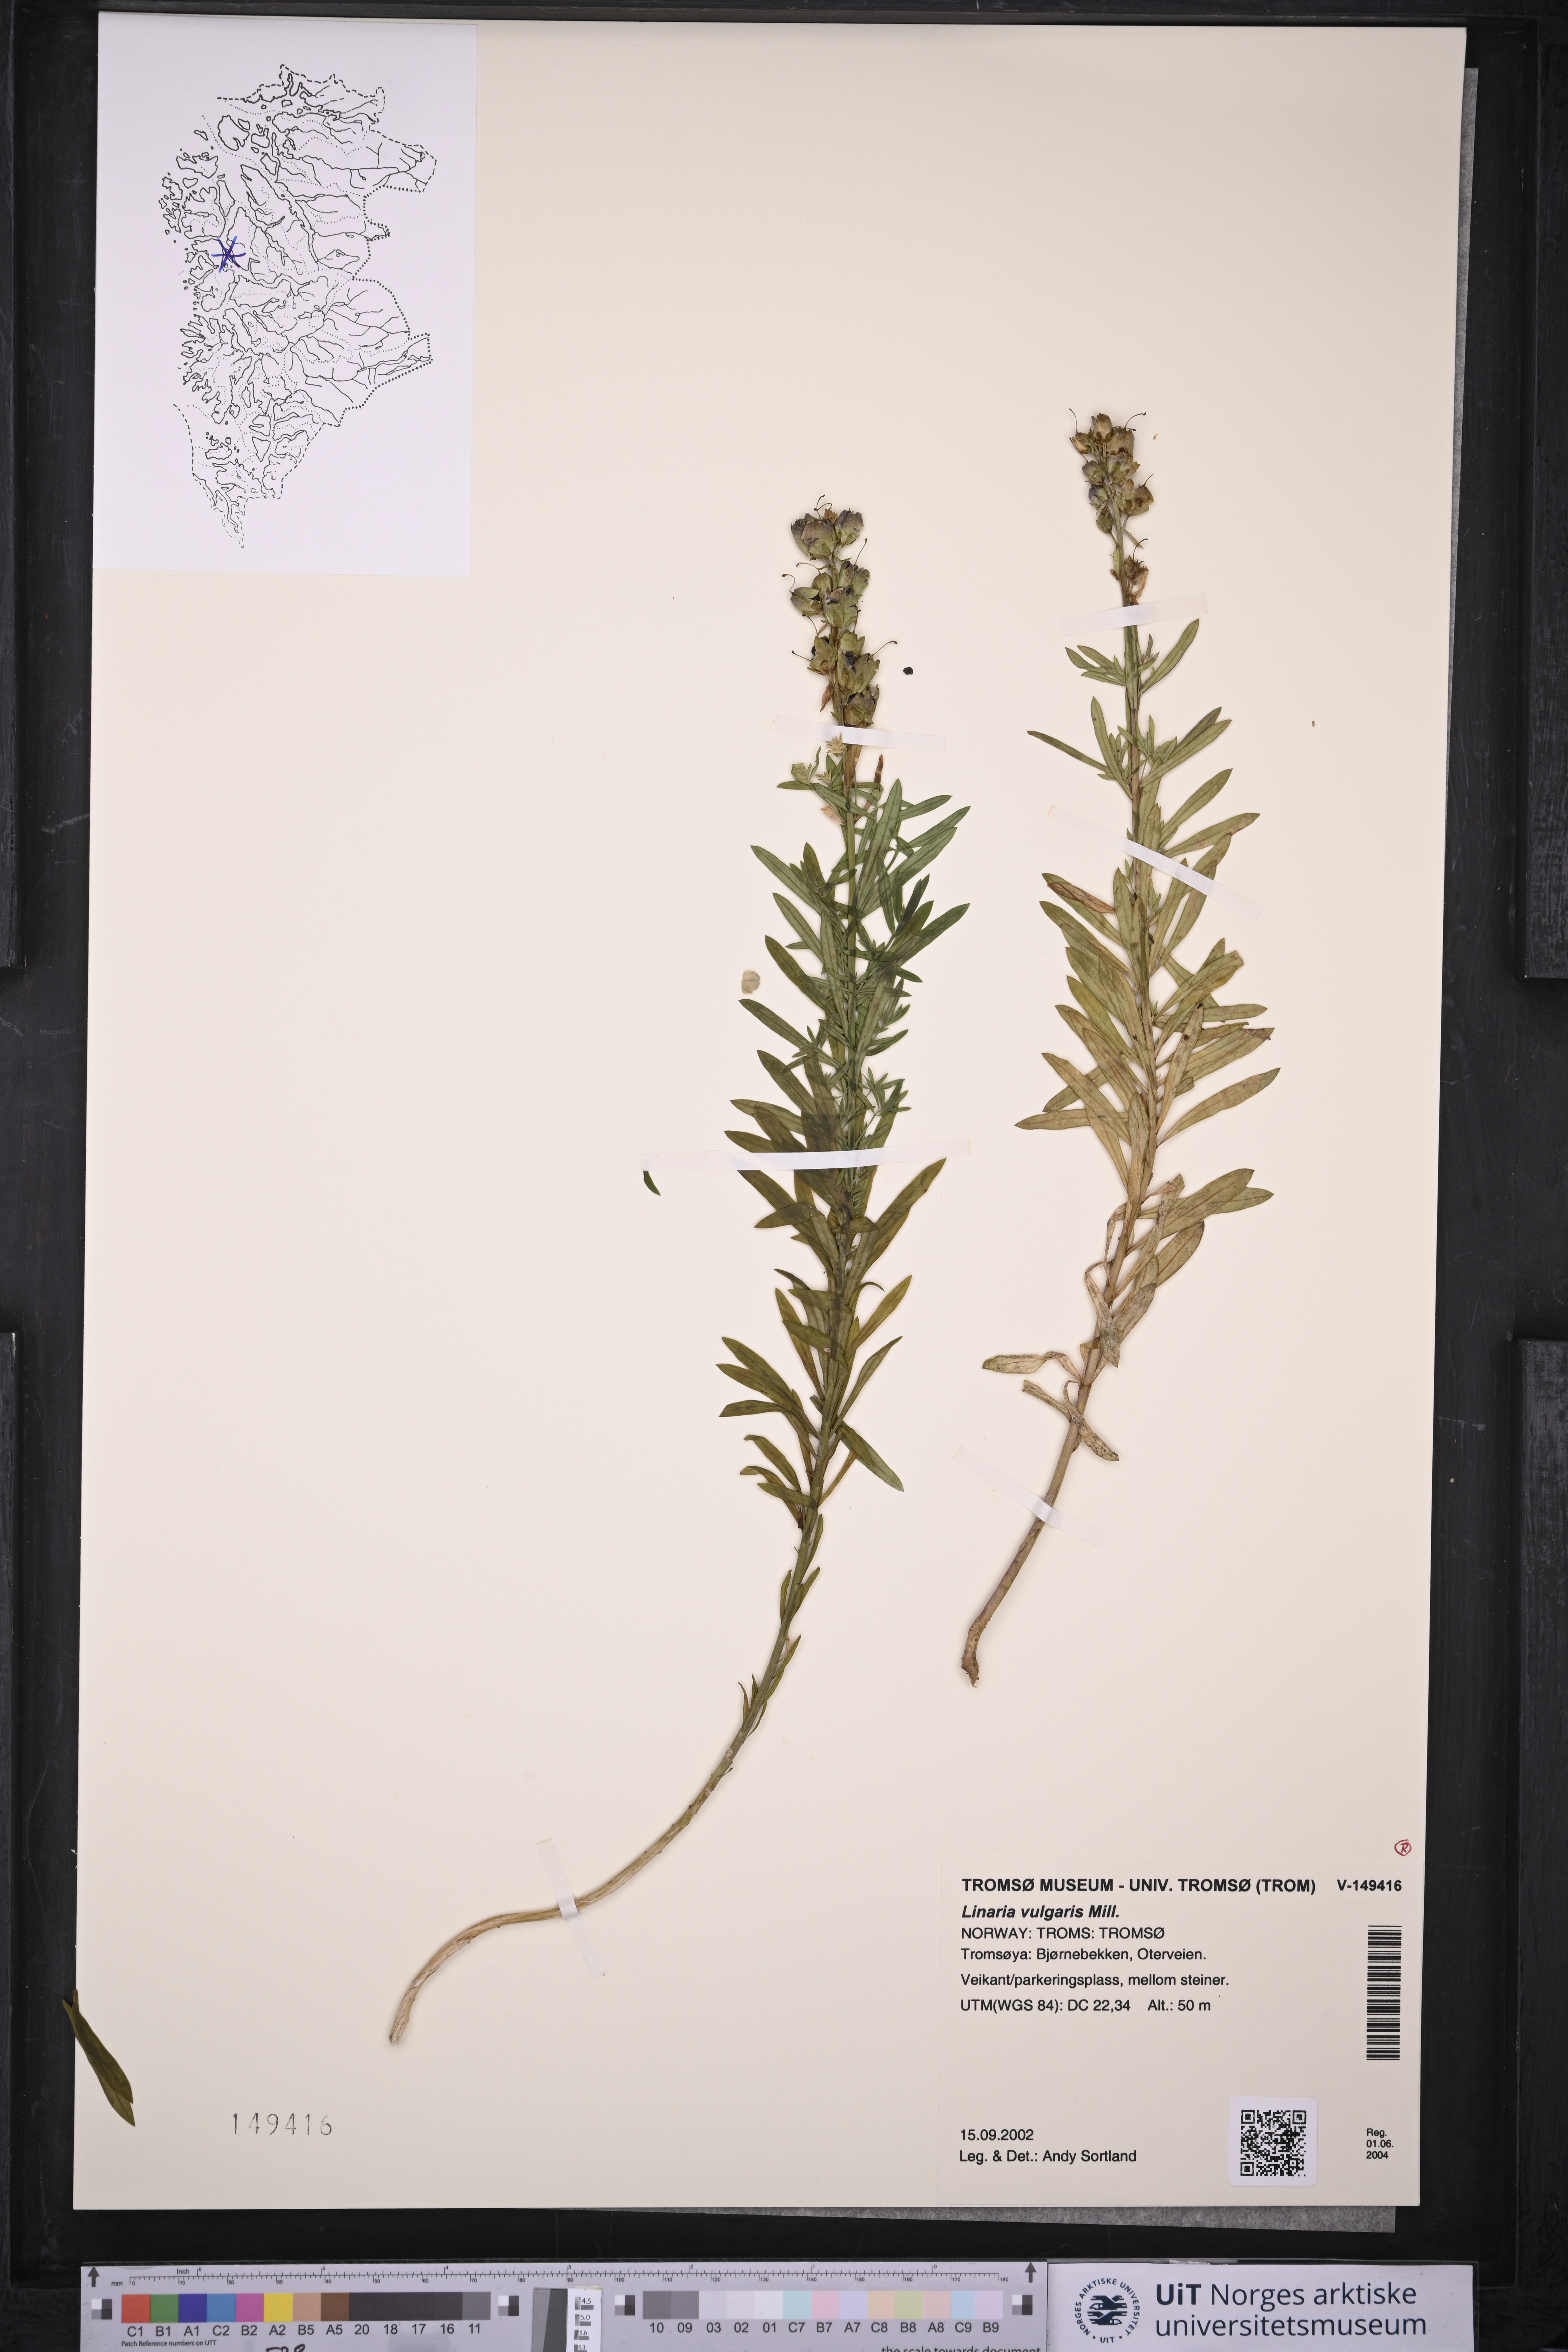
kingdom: Plantae
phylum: Tracheophyta
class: Magnoliopsida
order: Lamiales
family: Plantaginaceae
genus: Linaria
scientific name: Linaria vulgaris
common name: Butter and eggs
